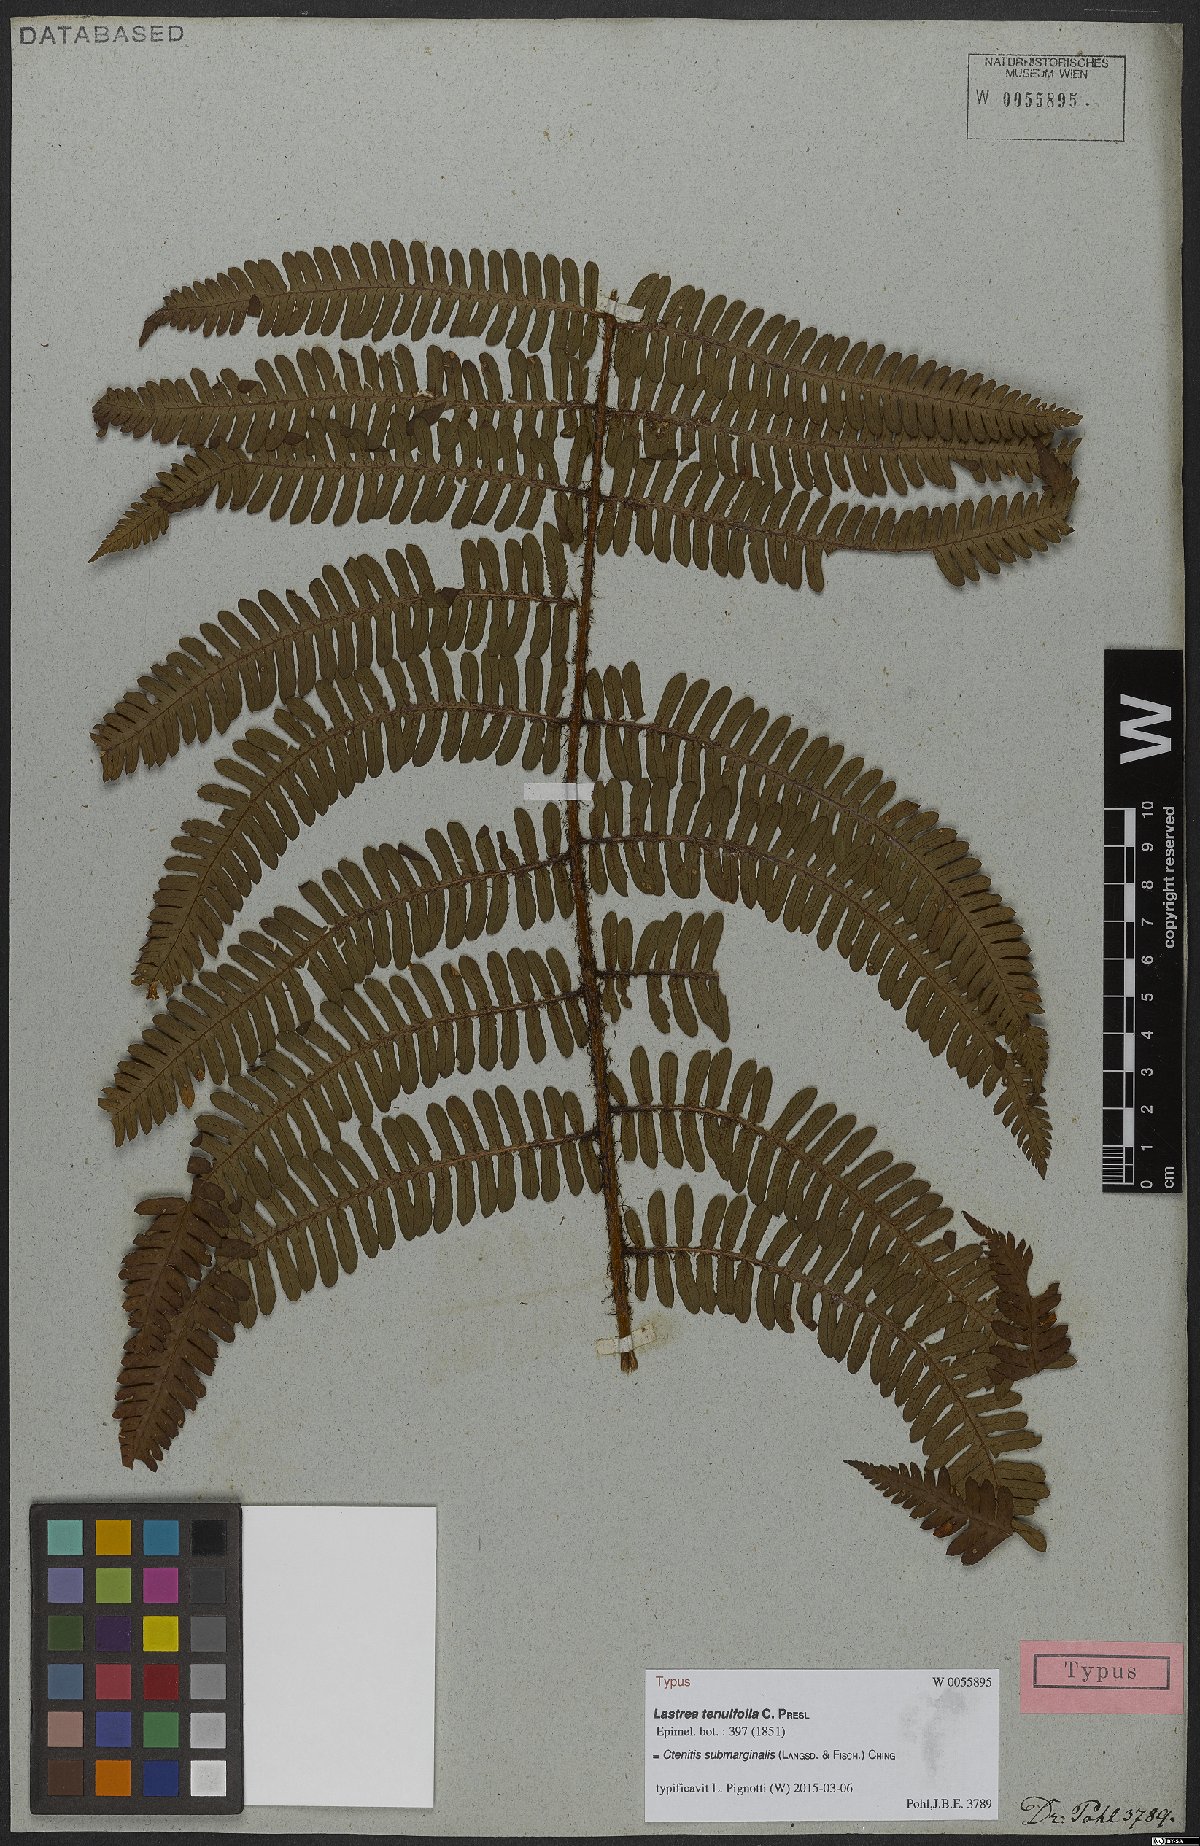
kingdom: Plantae
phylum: Tracheophyta
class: Polypodiopsida
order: Polypodiales
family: Dryopteridaceae
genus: Ctenitis
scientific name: Ctenitis submarginalis
